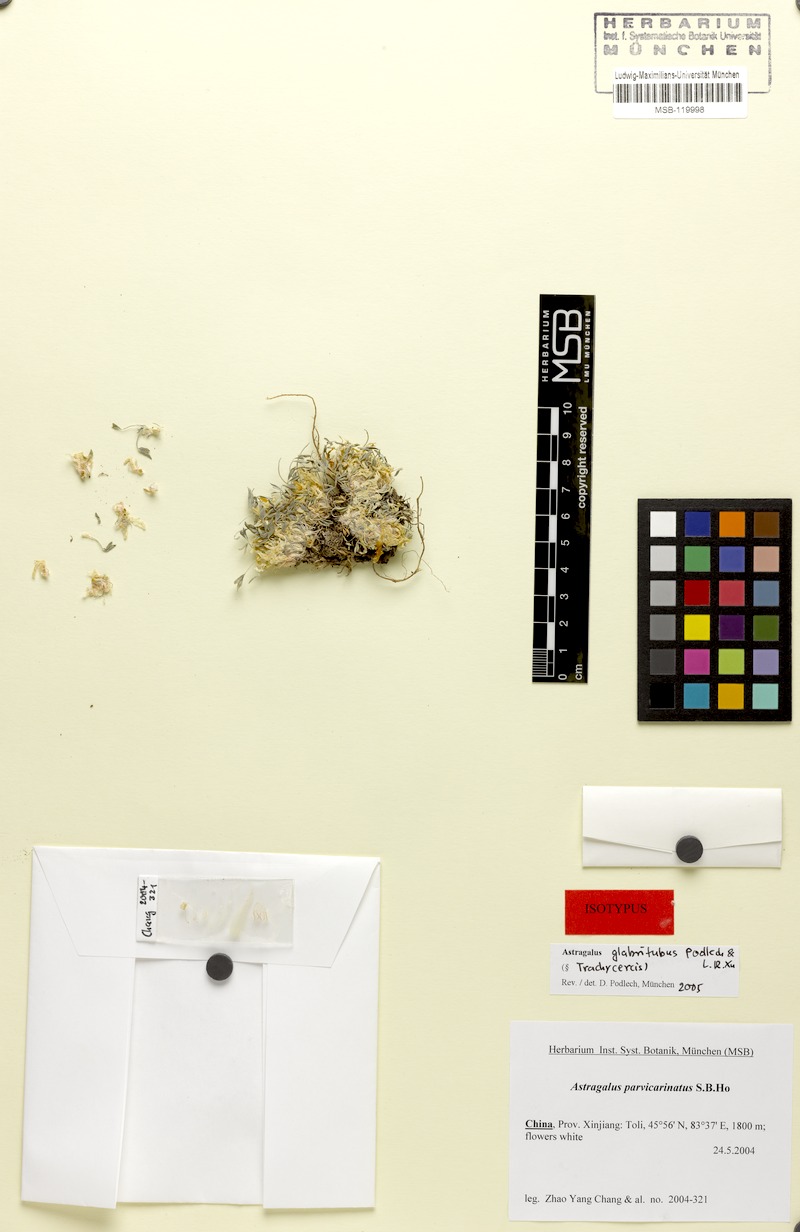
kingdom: Plantae
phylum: Tracheophyta
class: Magnoliopsida
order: Fabales
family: Fabaceae
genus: Astragalus
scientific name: Astragalus glabritubus
